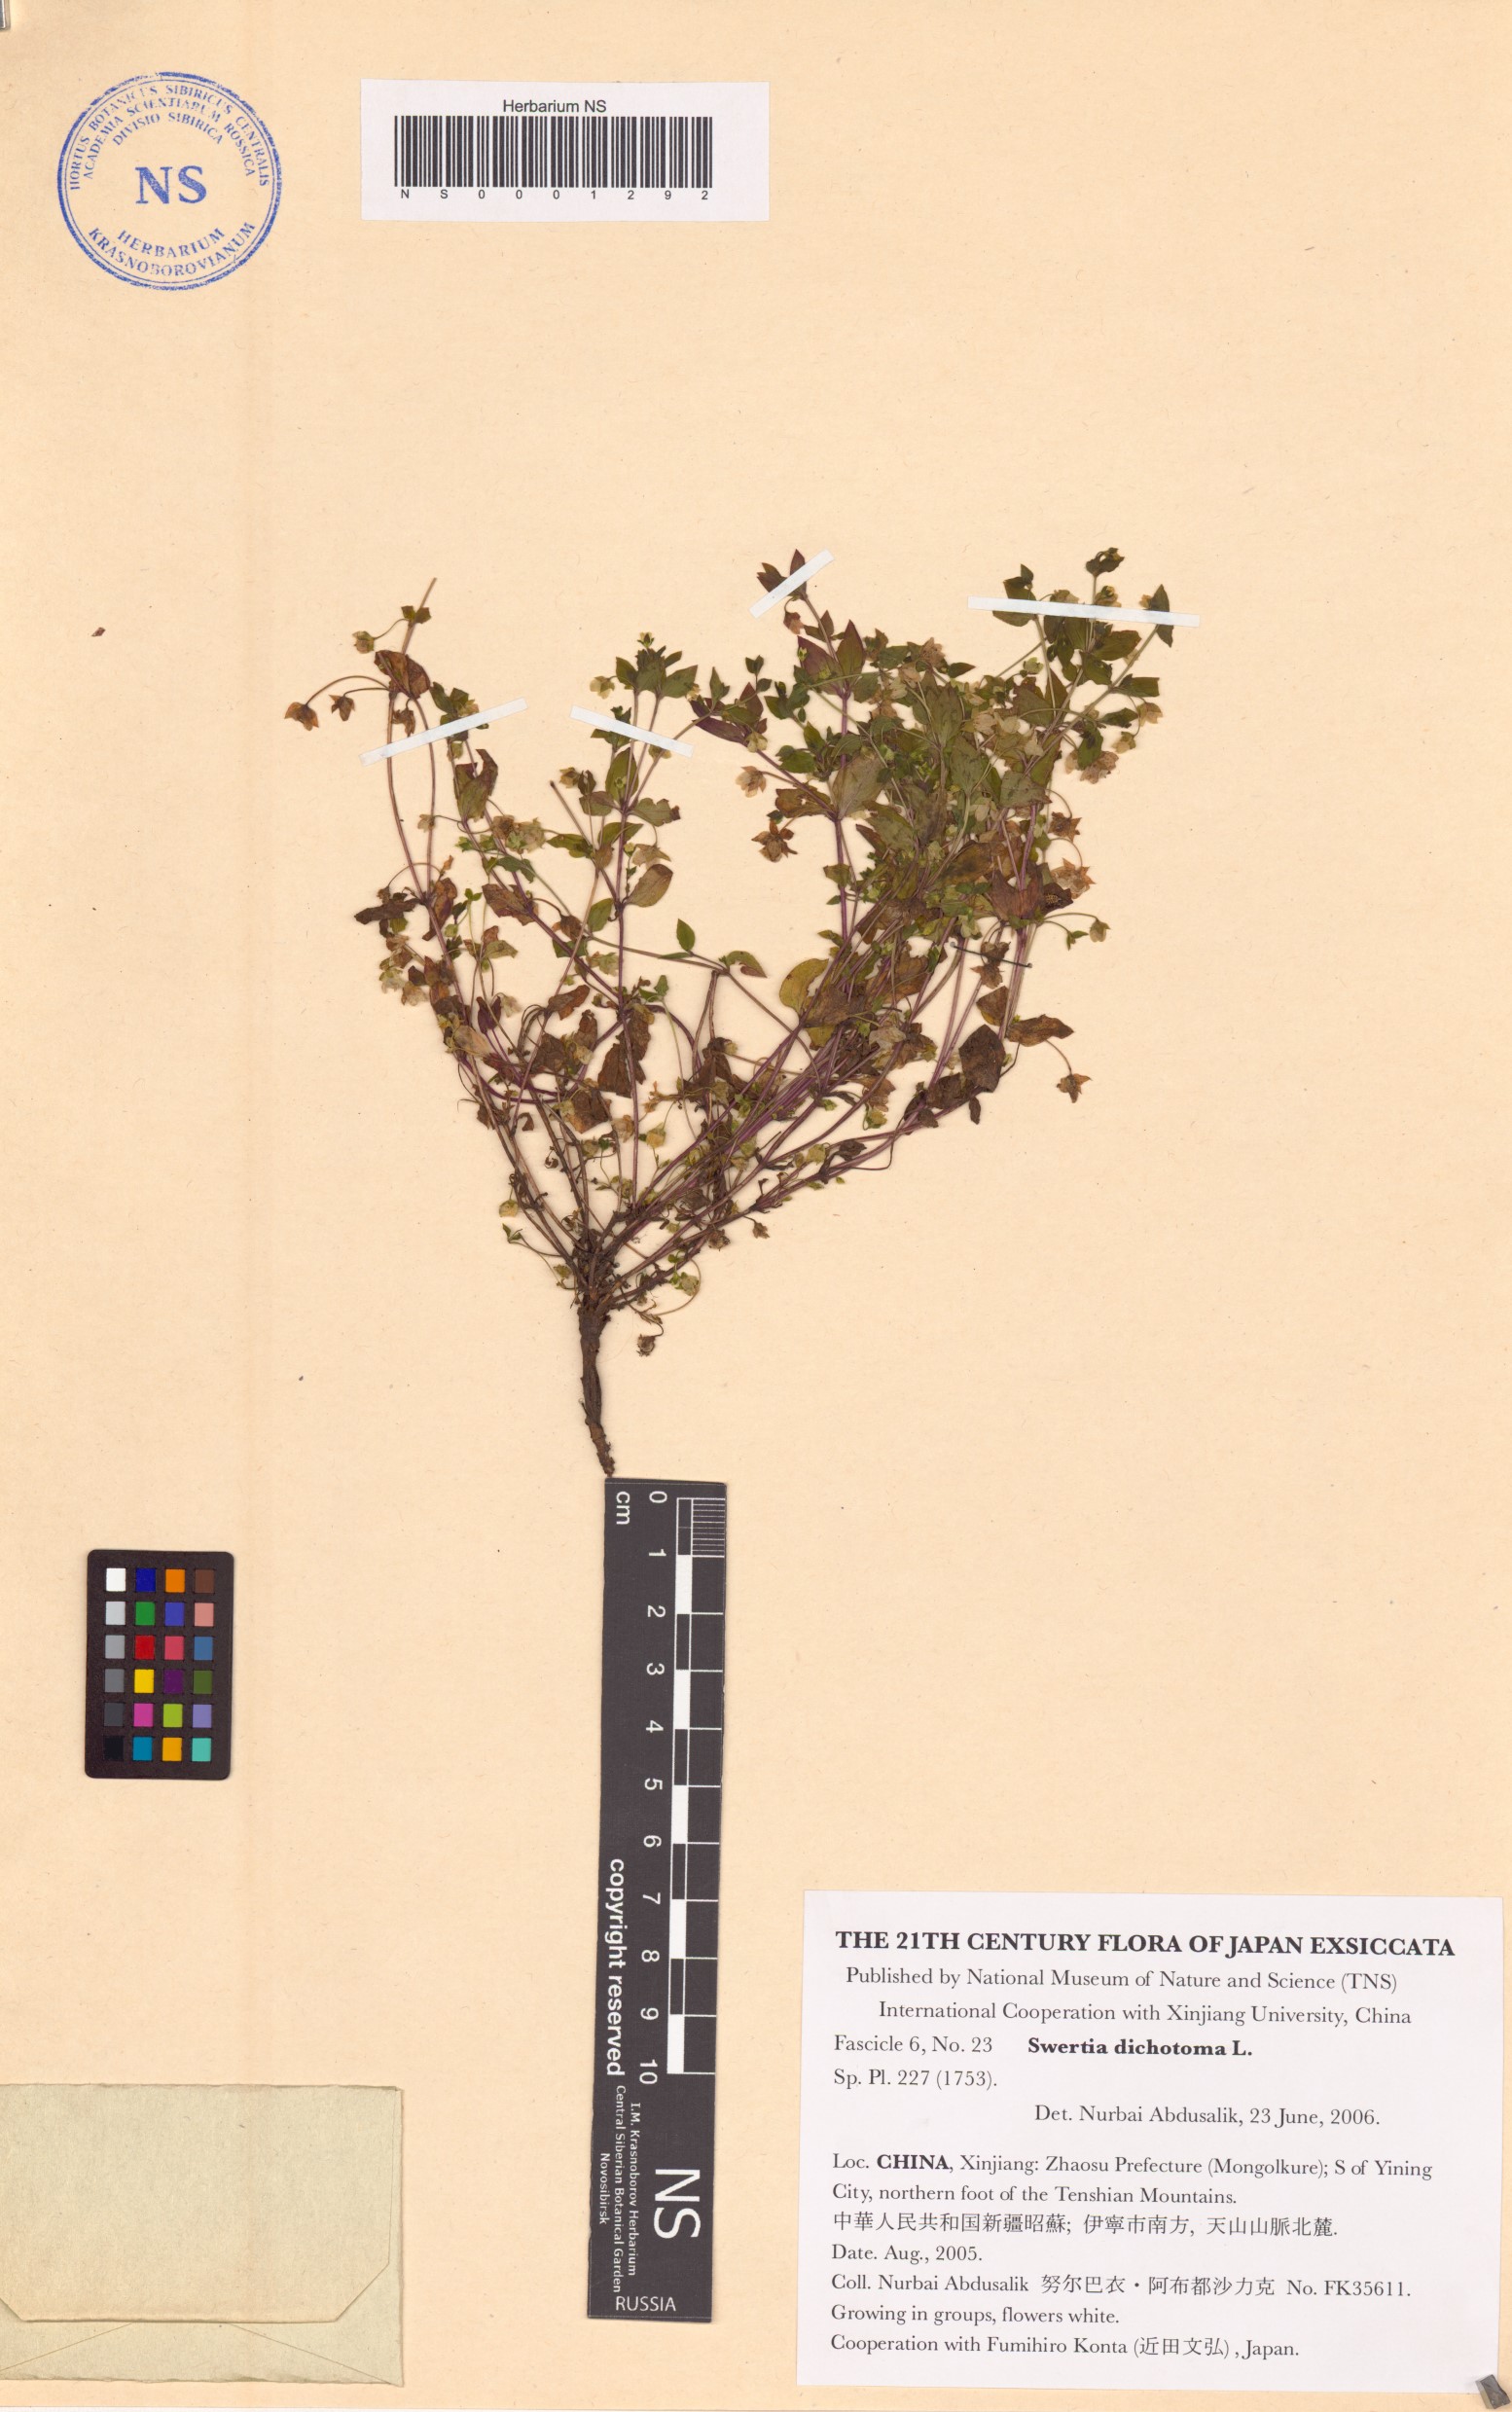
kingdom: Plantae
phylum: Tracheophyta
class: Magnoliopsida
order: Gentianales
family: Gentianaceae
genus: Swertia
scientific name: Swertia dichotoma
